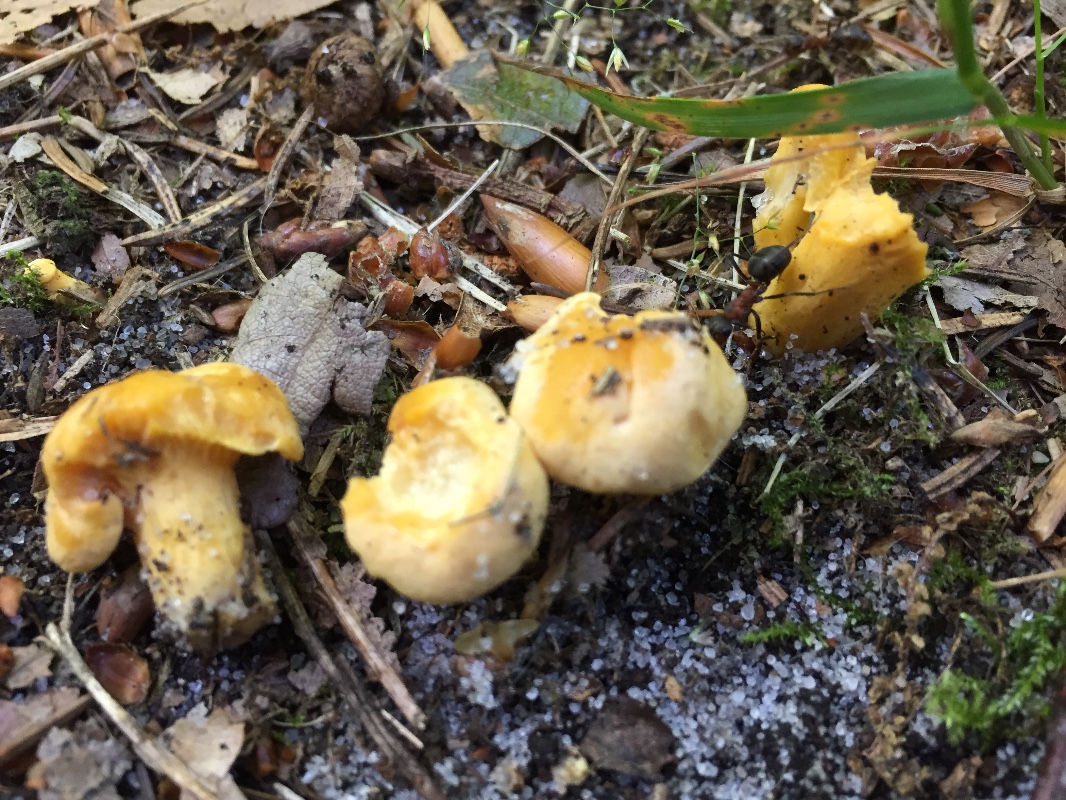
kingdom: Fungi
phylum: Basidiomycota
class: Agaricomycetes
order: Cantharellales
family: Hydnaceae
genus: Cantharellus
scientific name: Cantharellus cibarius
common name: almindelig kantarel
